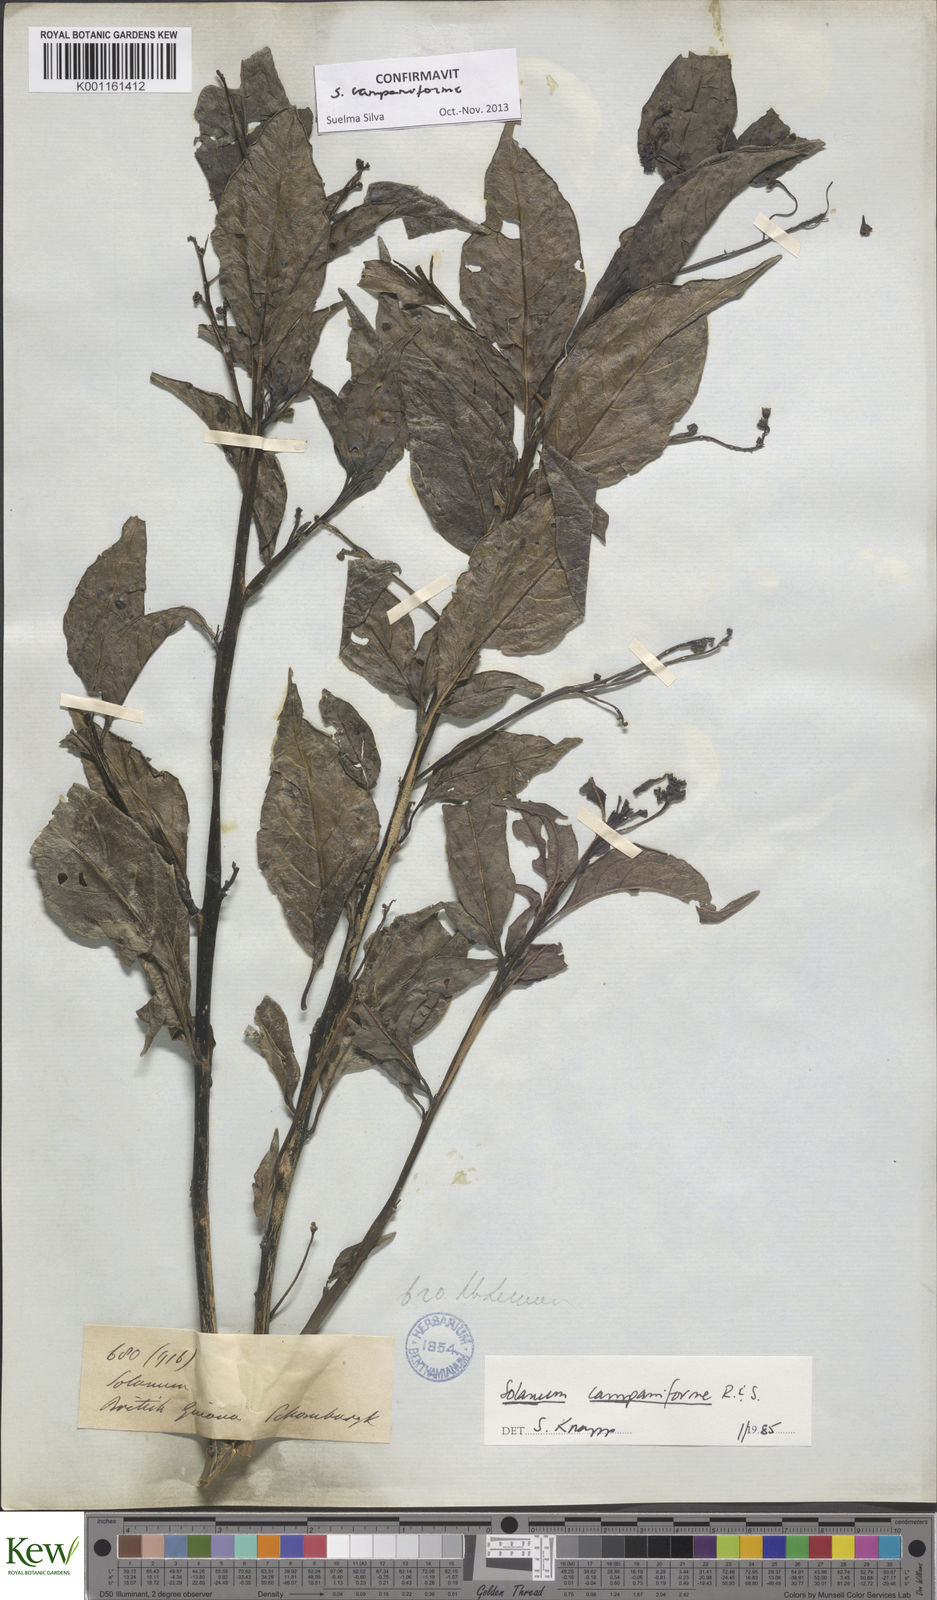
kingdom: Plantae
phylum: Tracheophyta
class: Magnoliopsida
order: Solanales
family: Solanaceae
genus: Solanum
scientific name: Solanum campaniforme
